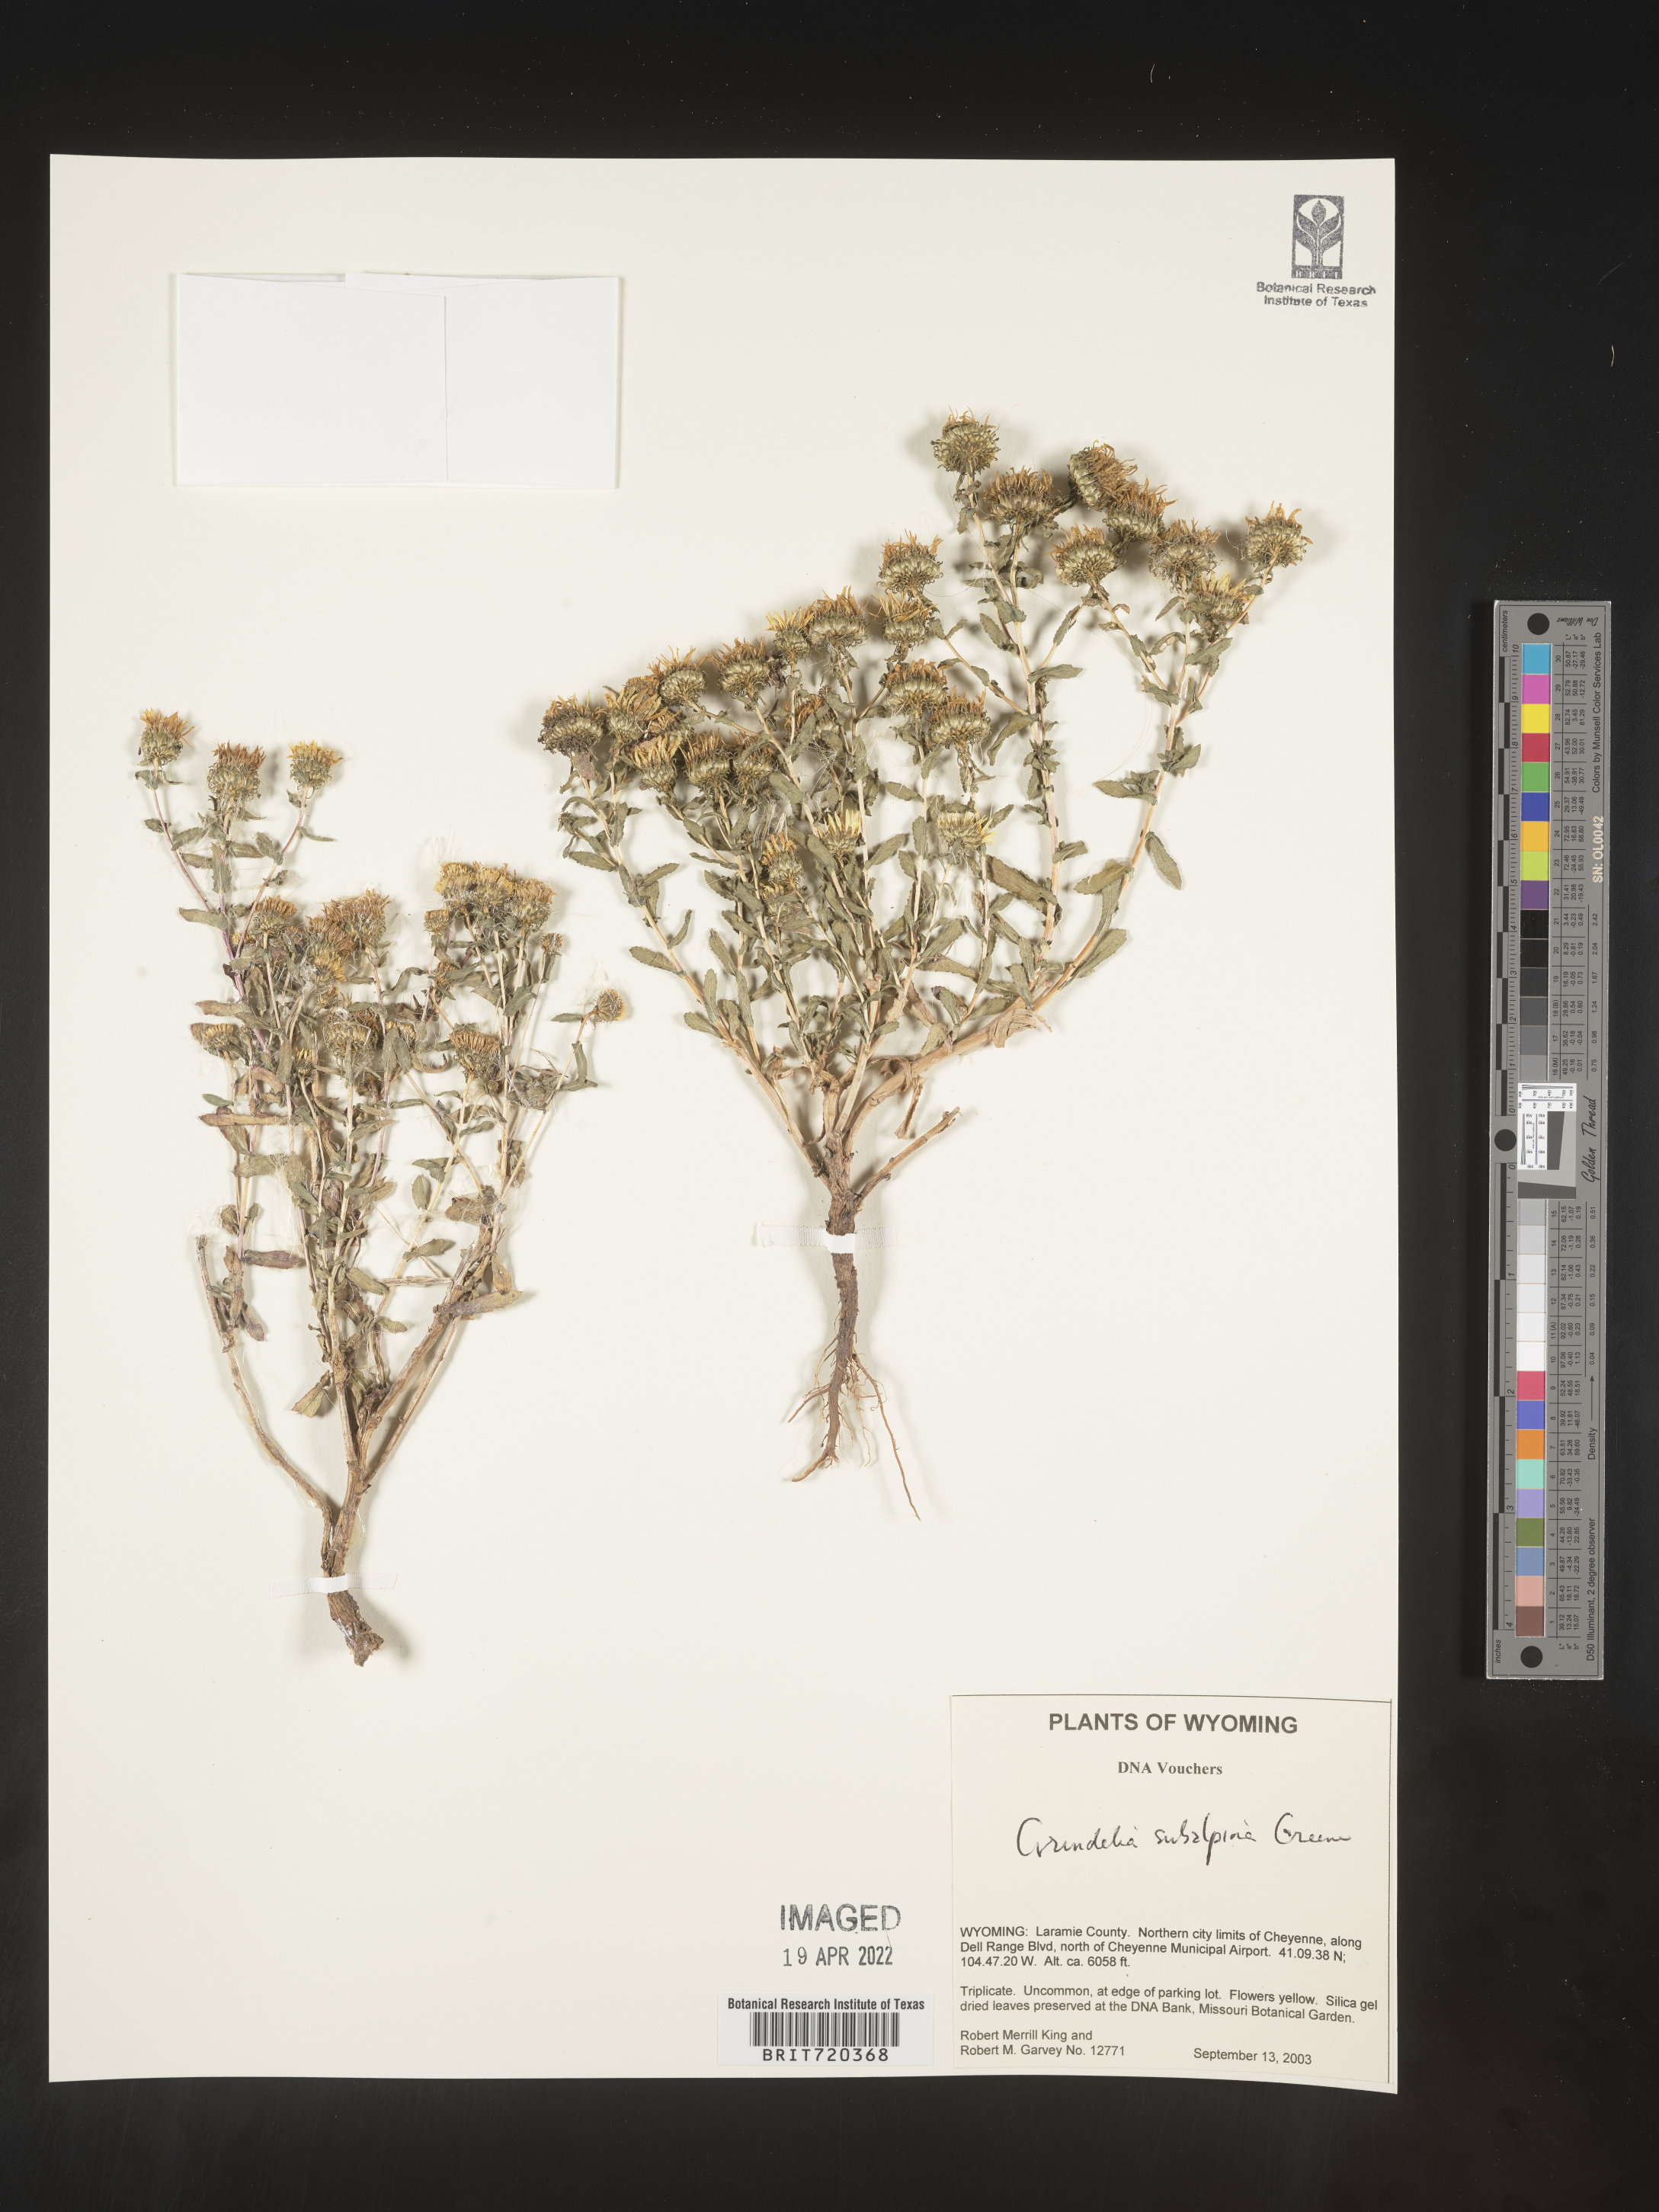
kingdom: Plantae
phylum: Tracheophyta
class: Magnoliopsida
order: Asterales
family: Asteraceae
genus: Grindelia
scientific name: Grindelia subalpina
